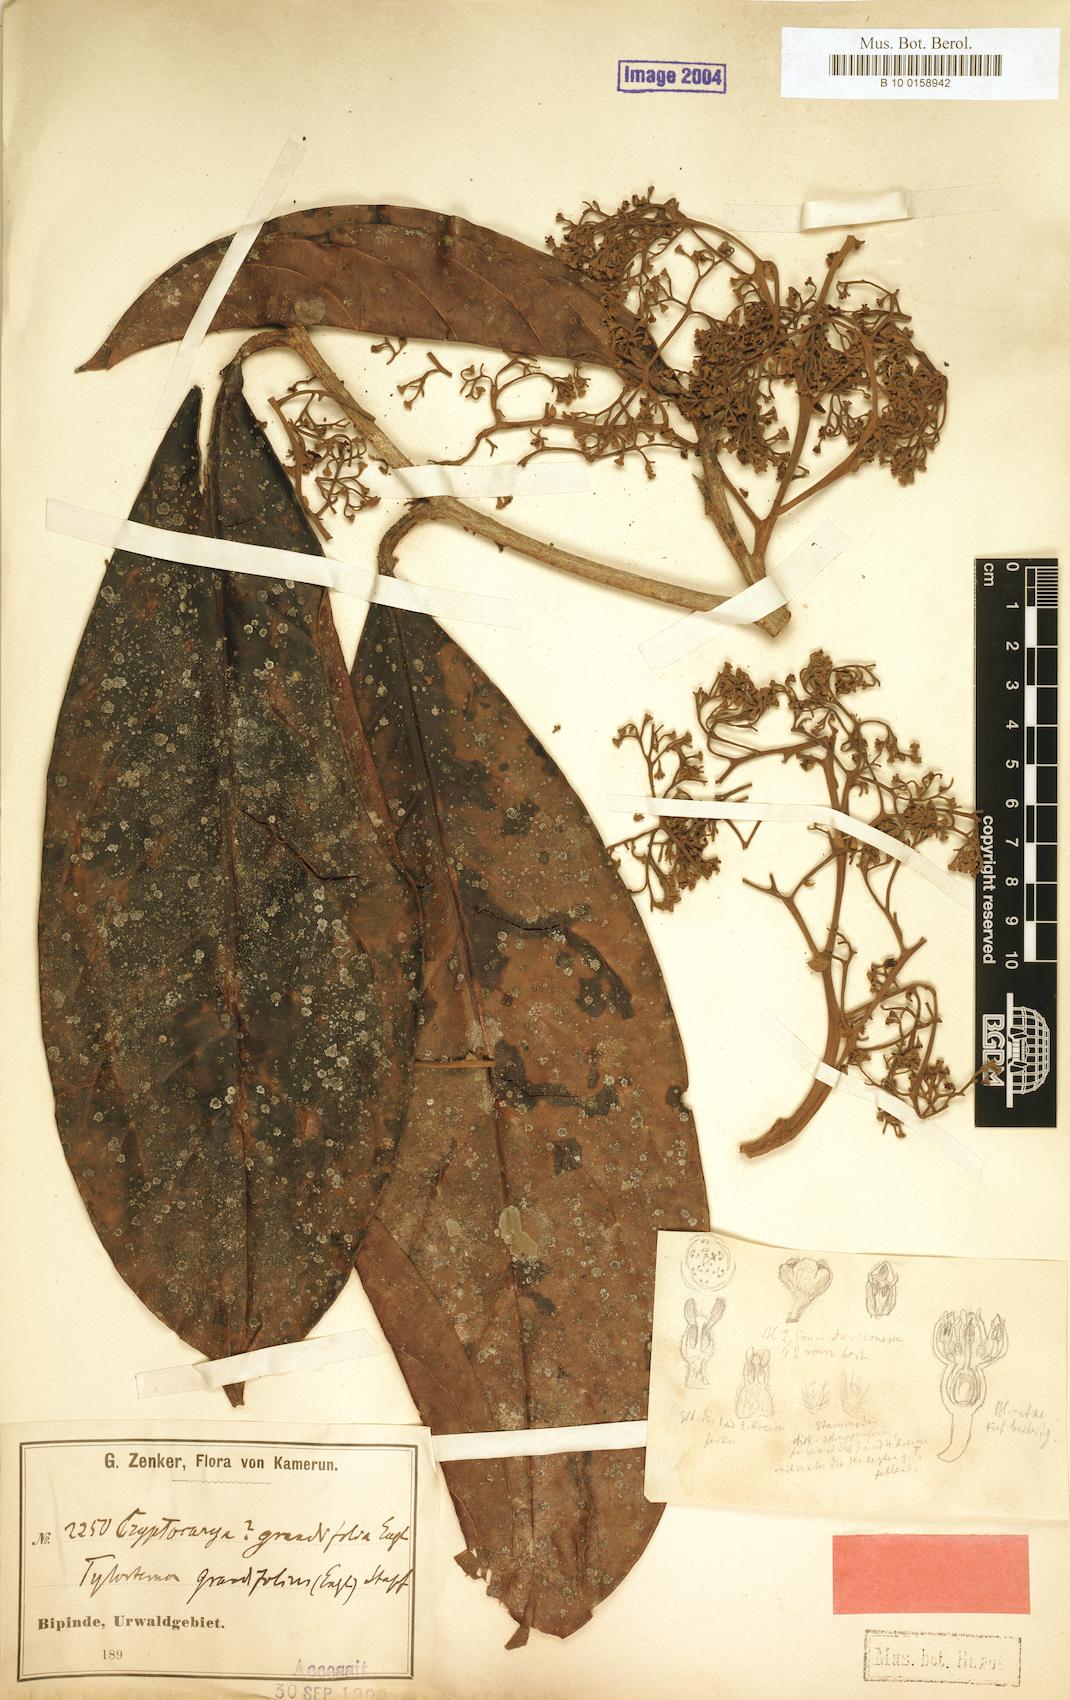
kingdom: Plantae
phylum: Tracheophyta
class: Magnoliopsida
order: Laurales
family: Lauraceae
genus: Beilschmiedia
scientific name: Beilschmiedia grandifolia
